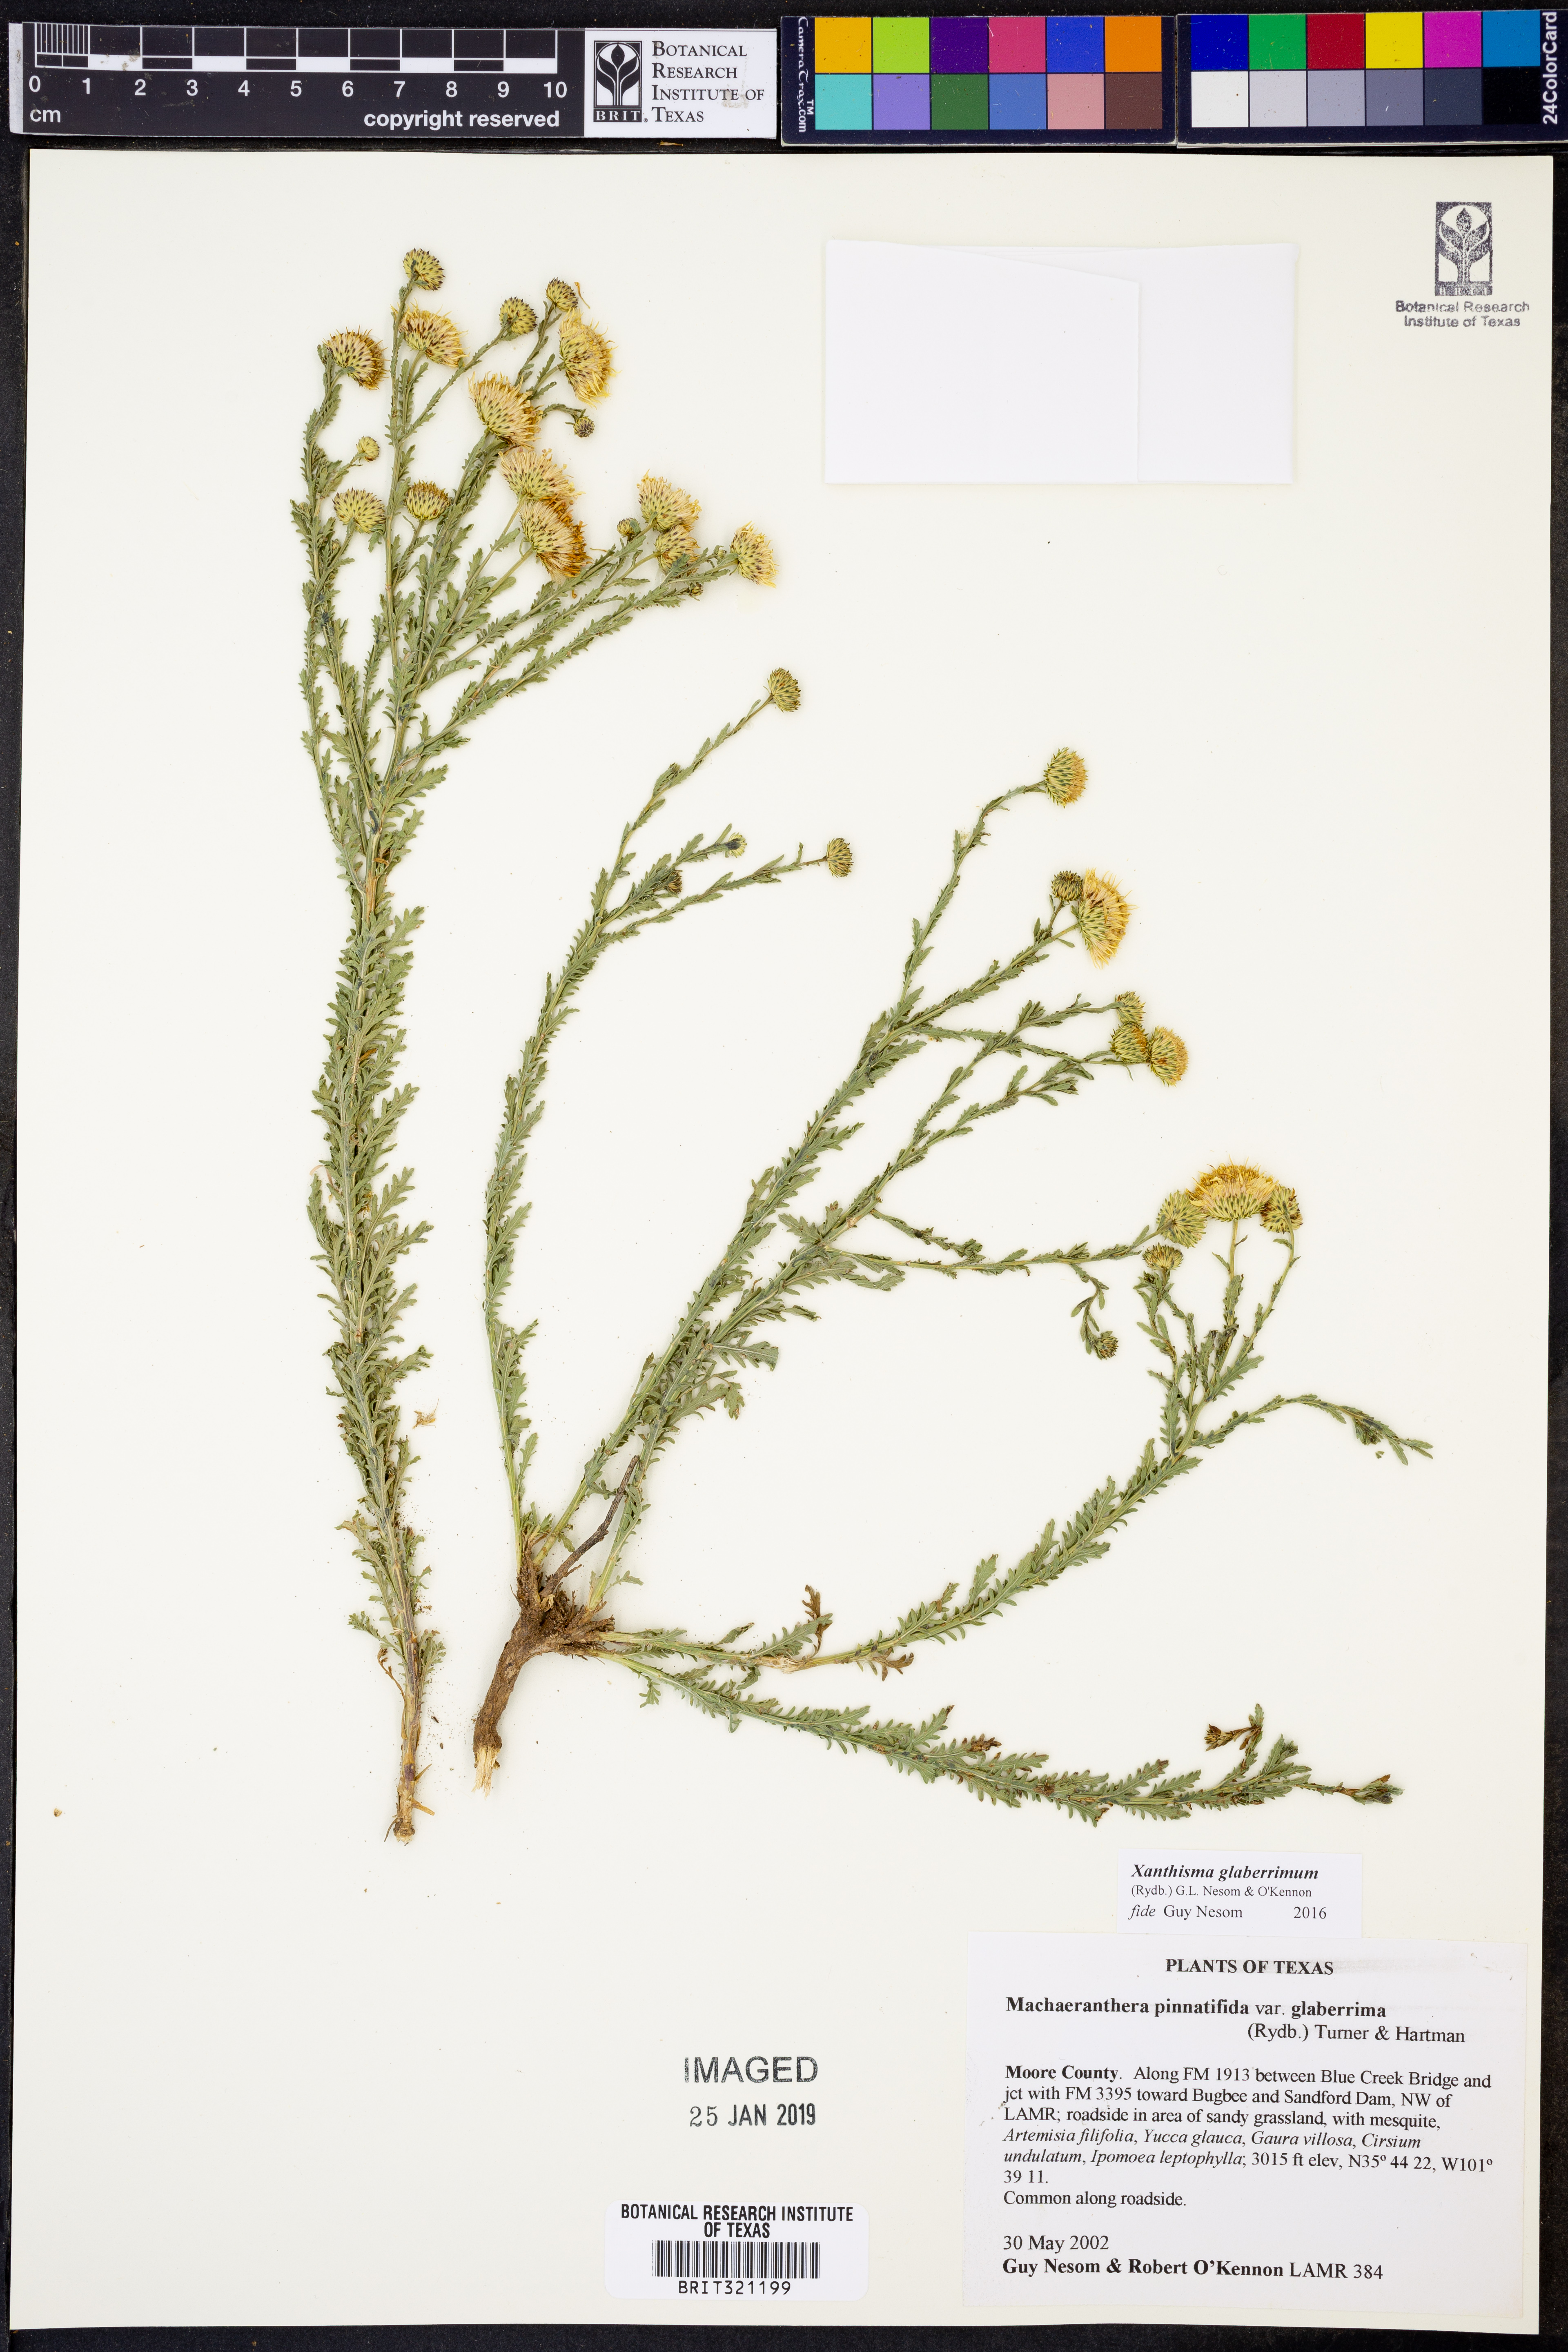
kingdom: Plantae
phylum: Tracheophyta
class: Magnoliopsida
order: Asterales
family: Asteraceae
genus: Xanthisma
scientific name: Xanthisma spinulosum
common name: Spiny goldenweed
